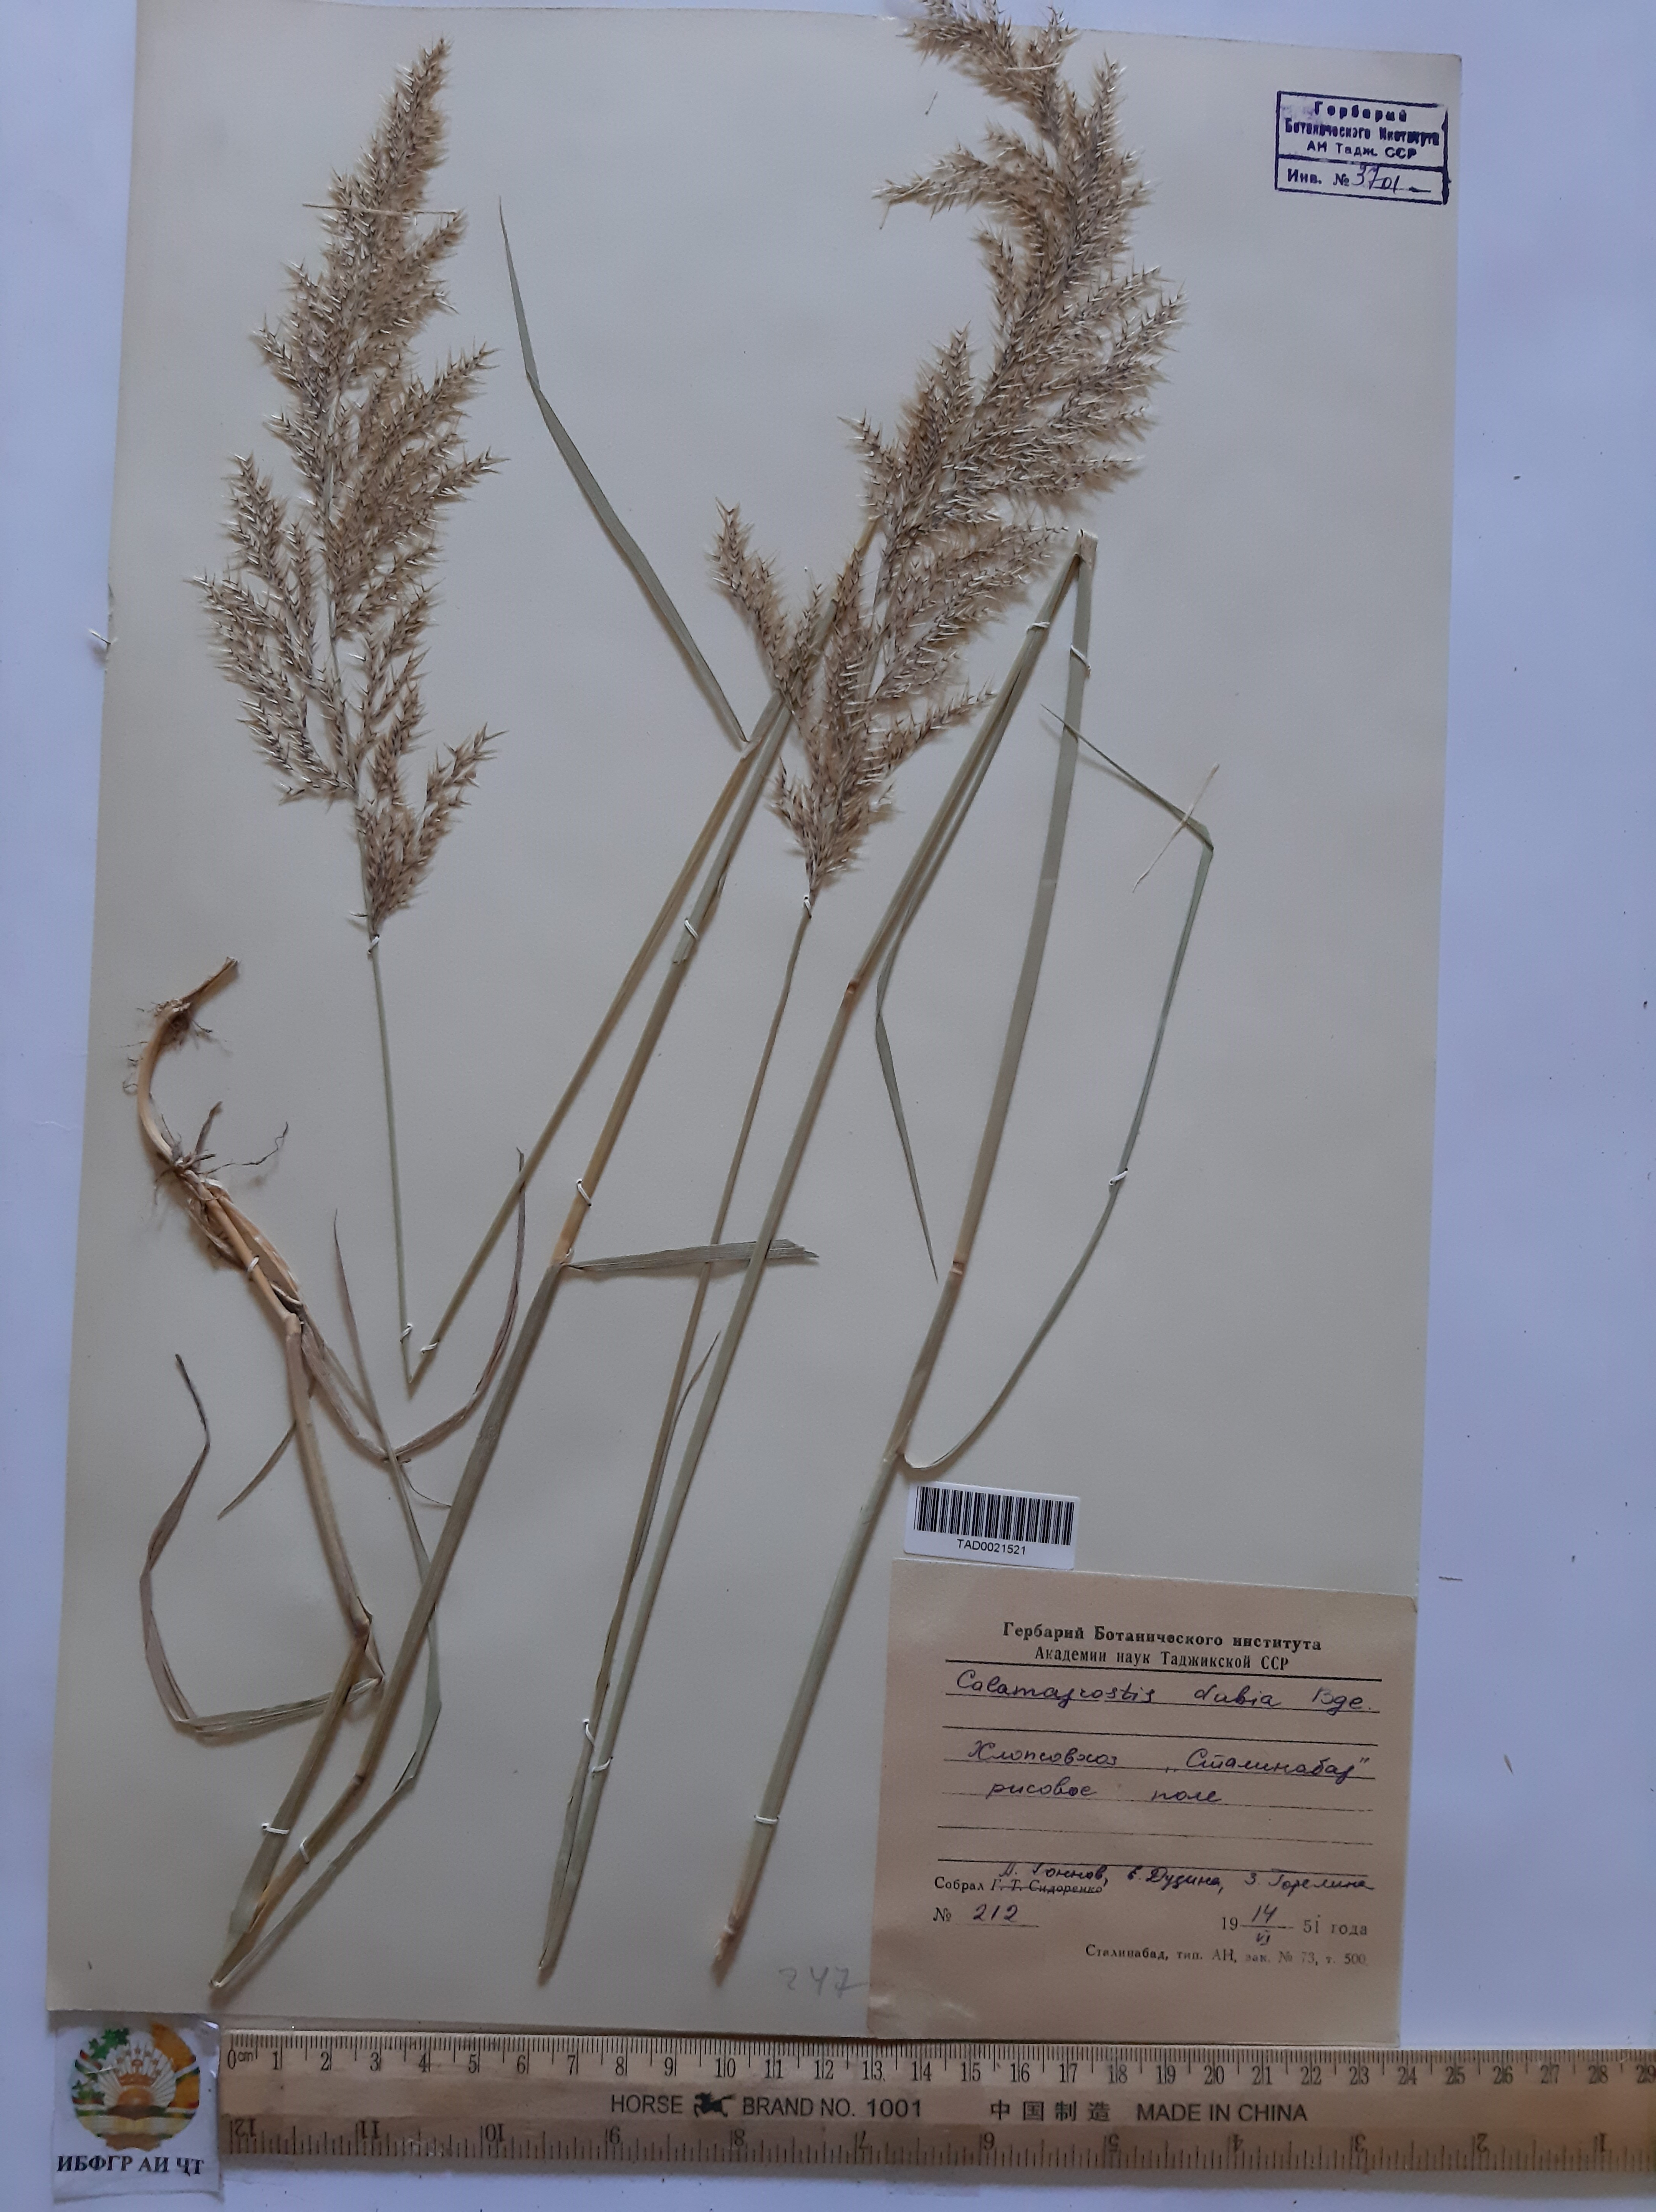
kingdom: Plantae
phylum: Tracheophyta
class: Liliopsida
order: Poales
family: Poaceae
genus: Calamagrostis
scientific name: Calamagrostis pseudophragmites
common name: Coastal small-reed
